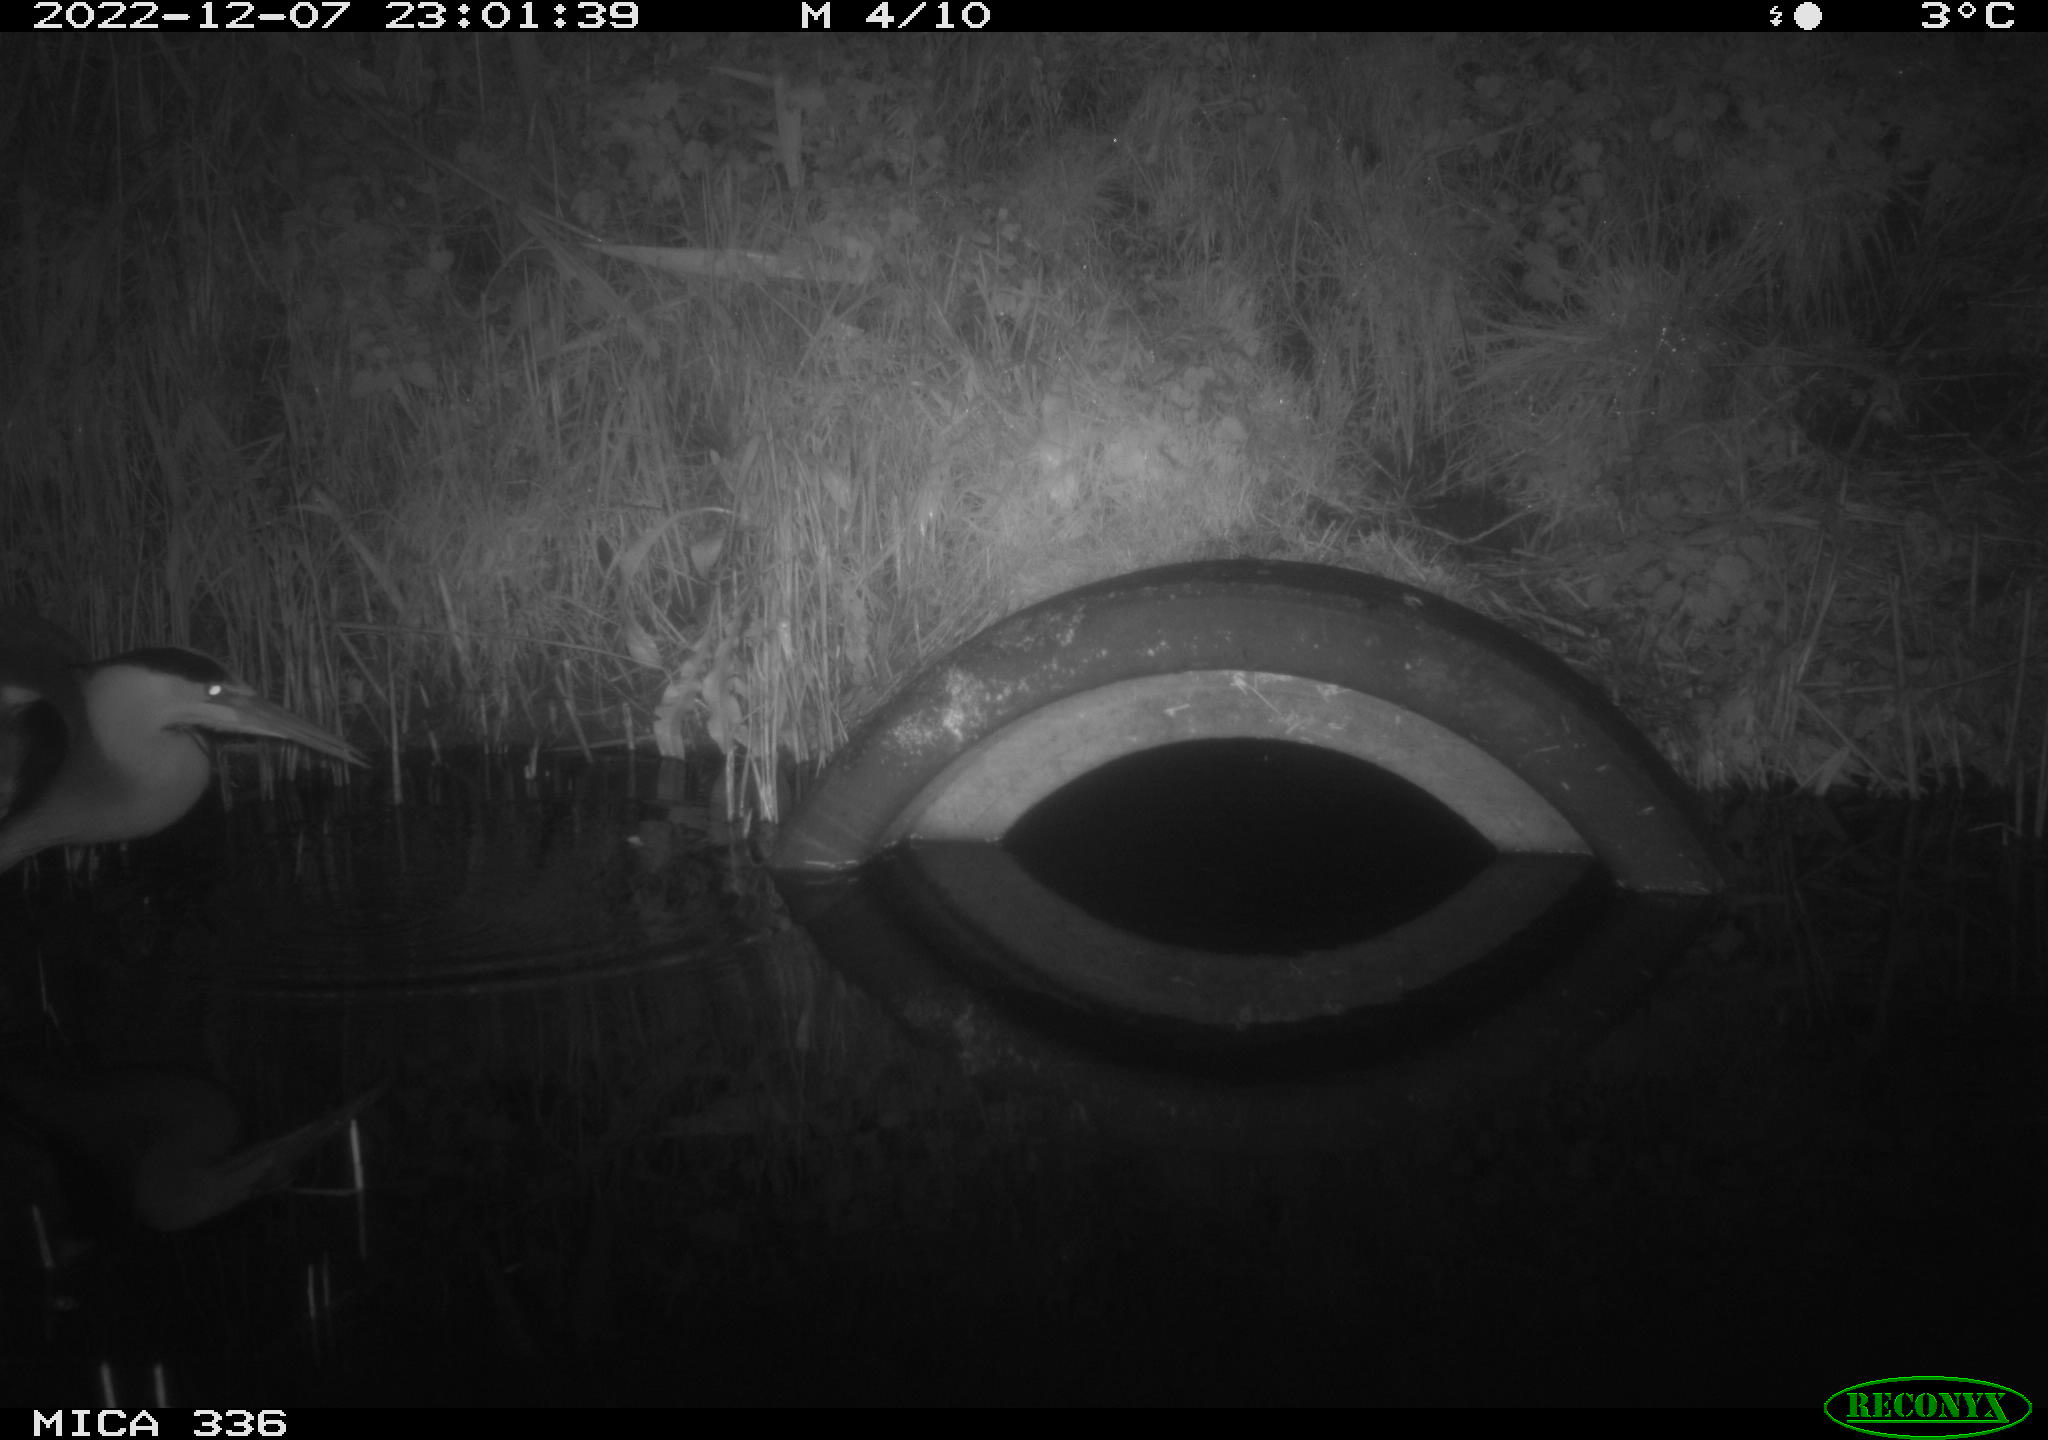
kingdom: Animalia
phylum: Chordata
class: Aves
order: Pelecaniformes
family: Ardeidae
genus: Ardea
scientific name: Ardea cinerea
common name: Grey heron
